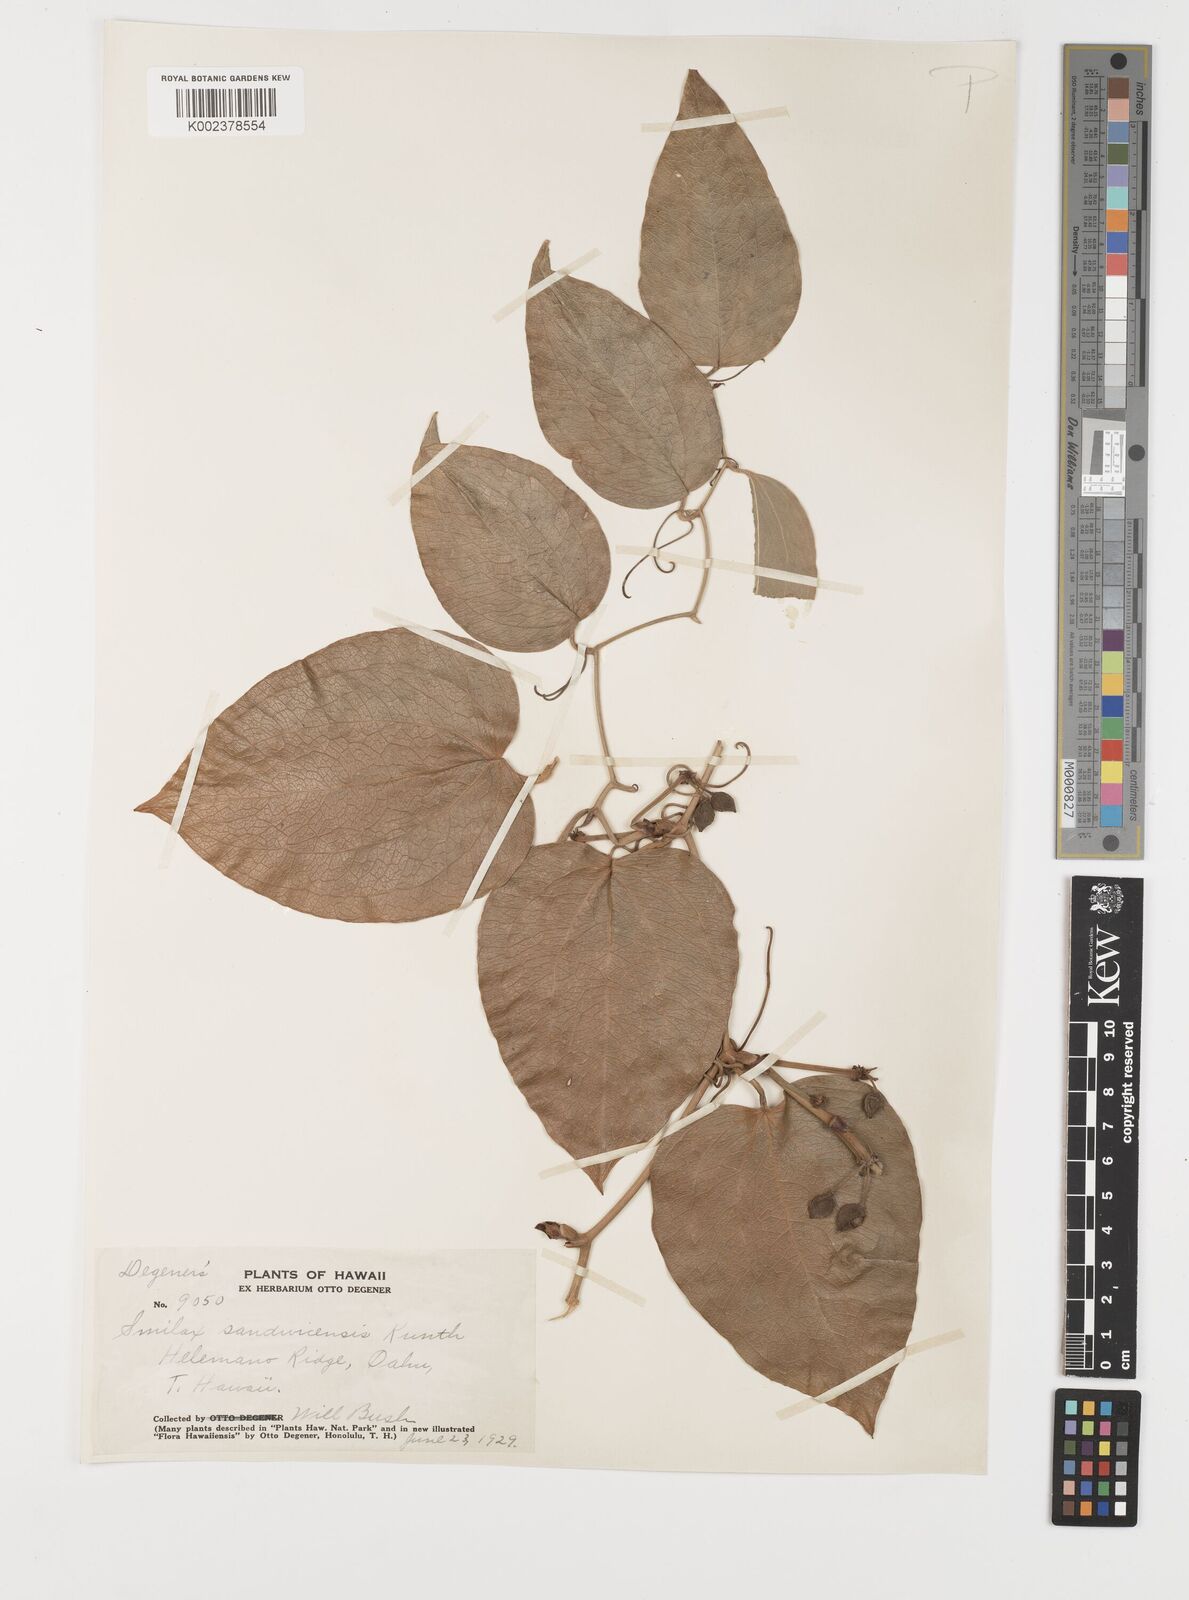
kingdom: Plantae
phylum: Tracheophyta
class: Liliopsida
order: Liliales
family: Smilacaceae
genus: Smilax
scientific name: Smilax melastomifolia
